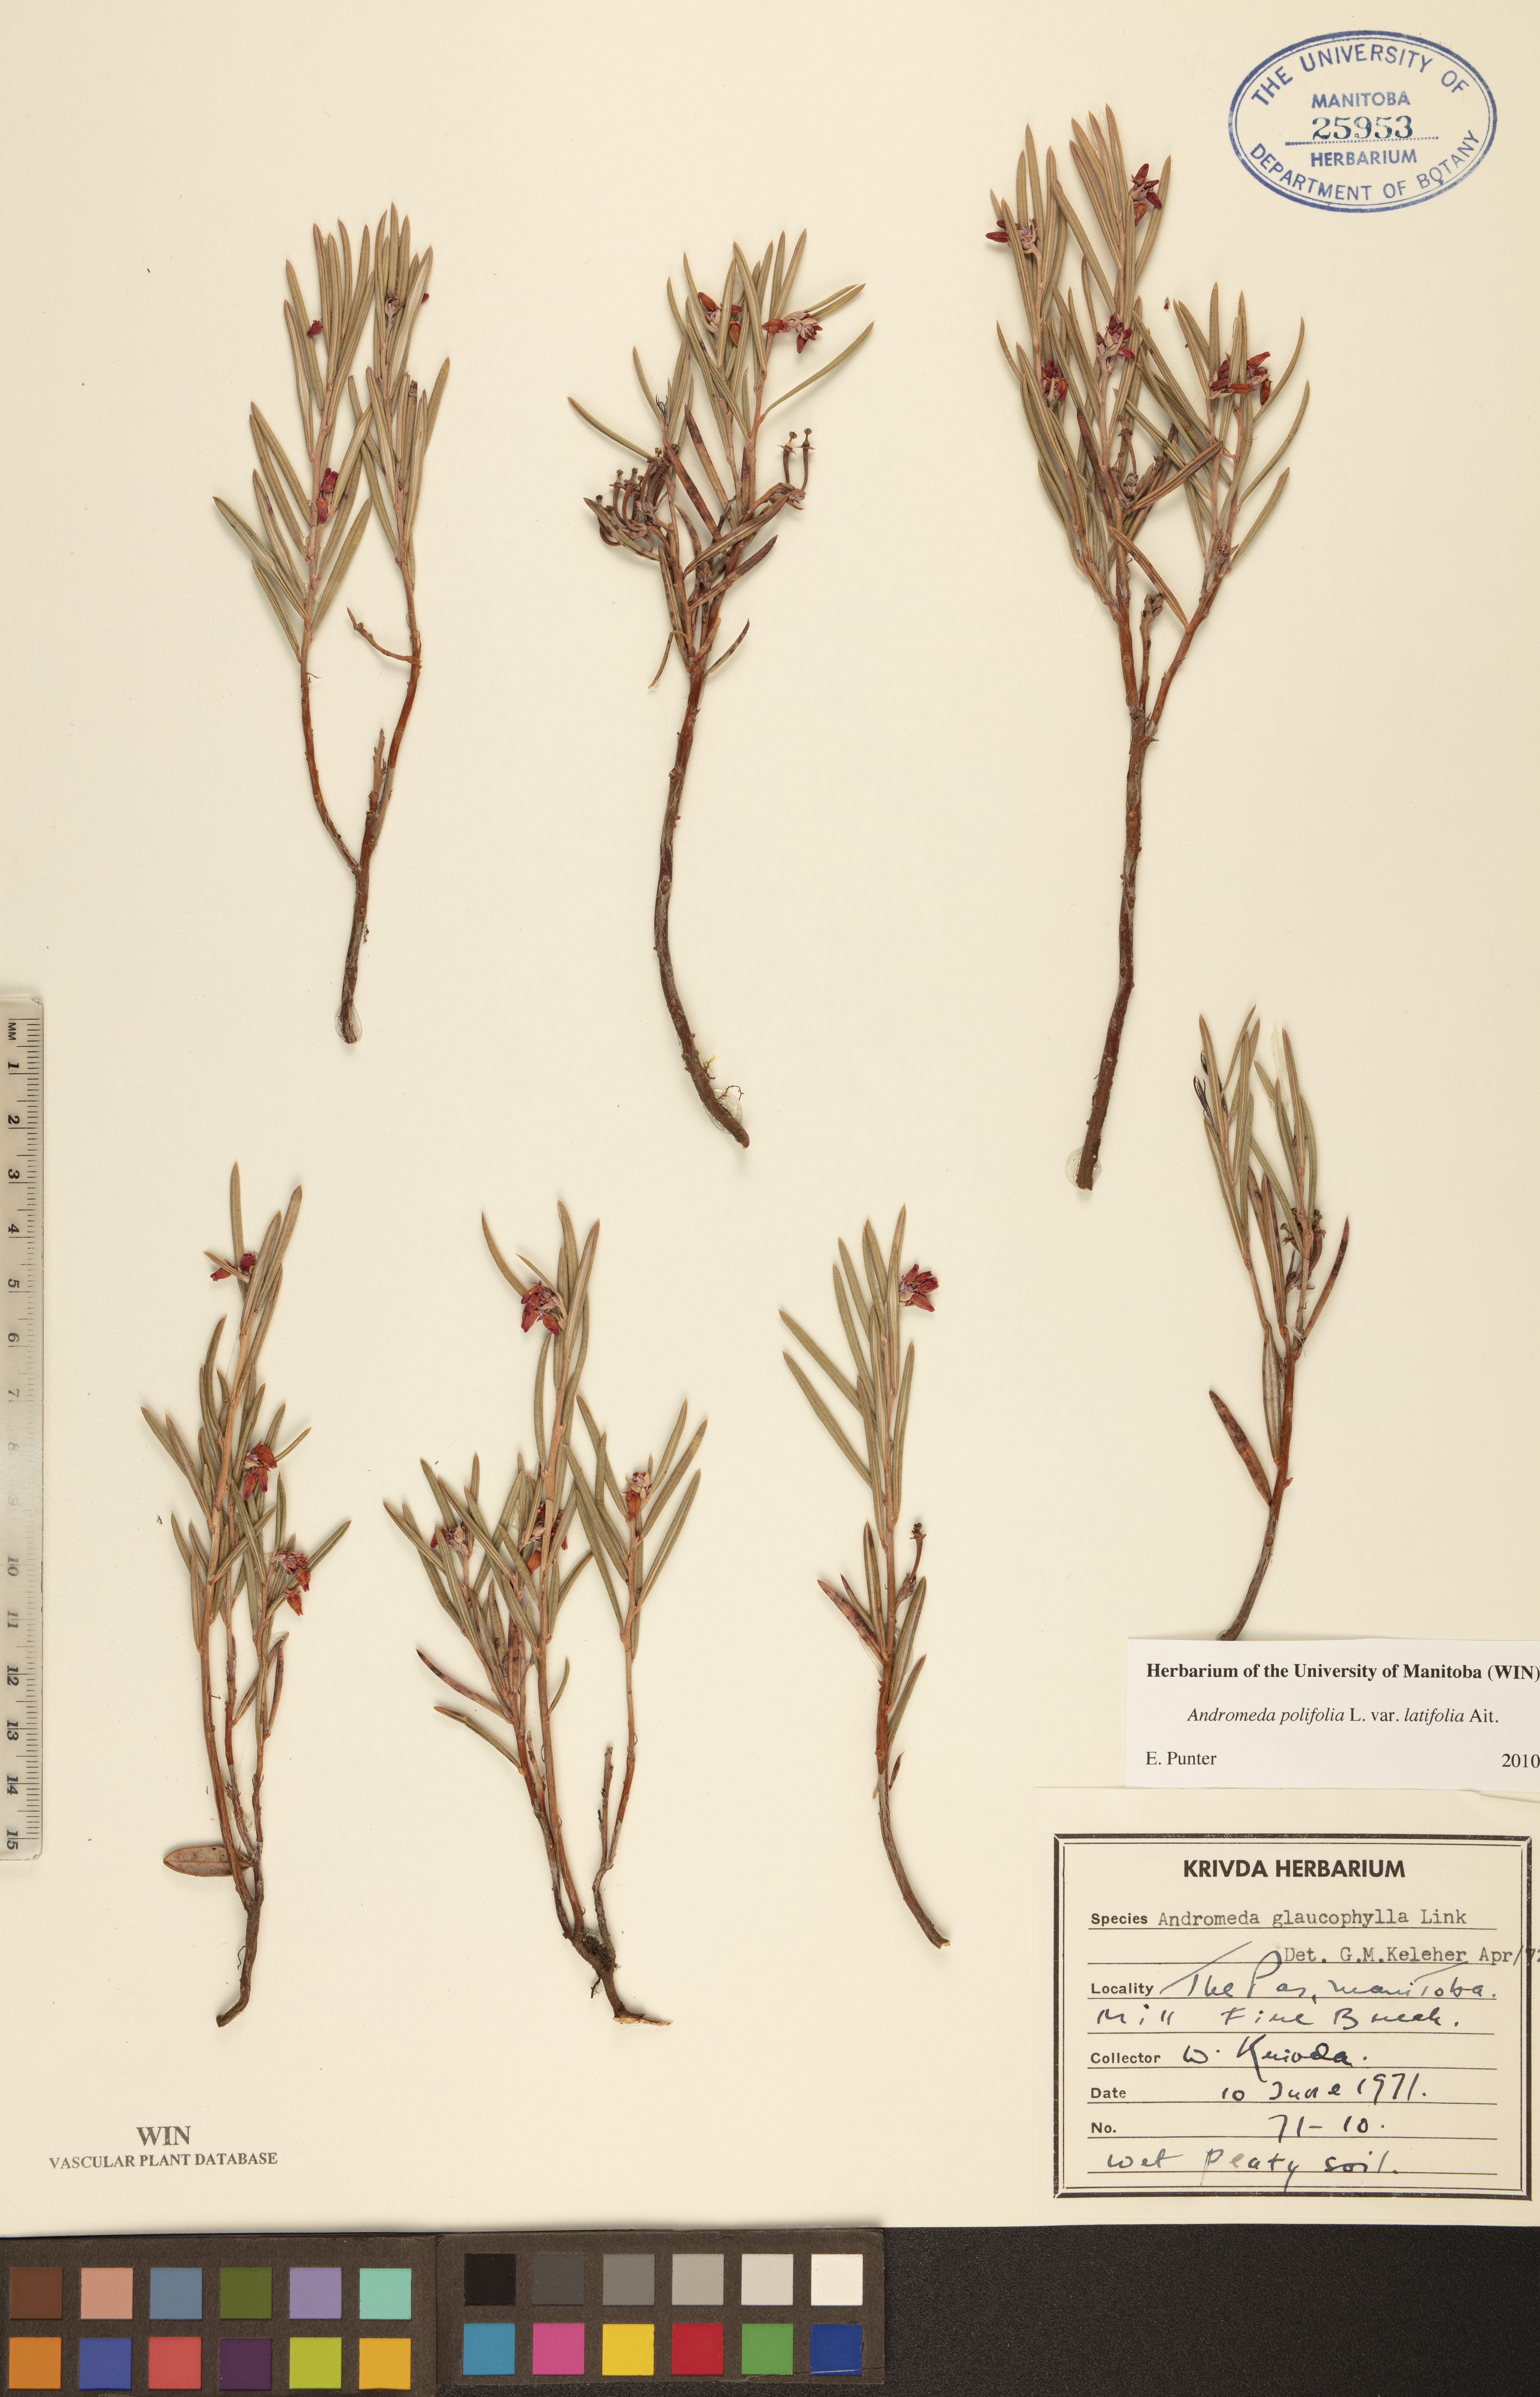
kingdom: Plantae
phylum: Tracheophyta
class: Magnoliopsida
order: Ericales
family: Ericaceae
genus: Andromeda
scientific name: Andromeda polifolia
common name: Bog-rosemary
